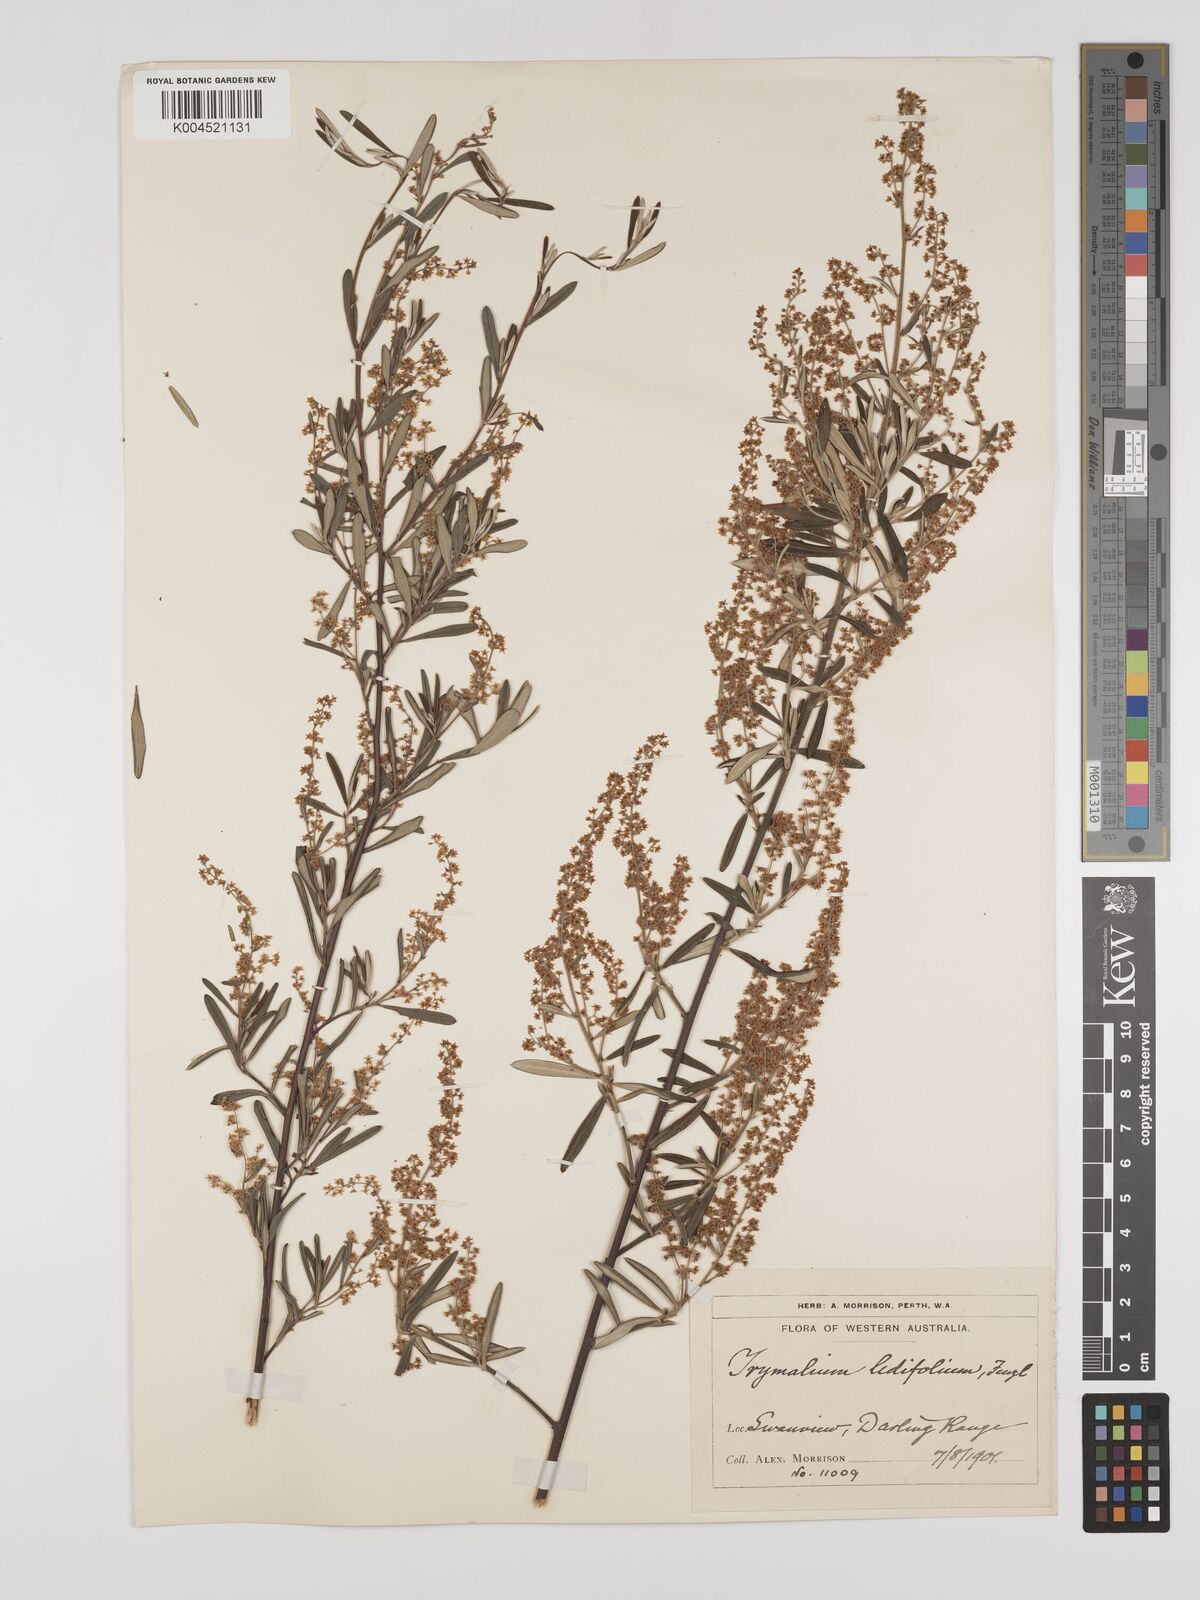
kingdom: Plantae
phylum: Tracheophyta
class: Magnoliopsida
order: Rosales
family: Rhamnaceae
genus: Trymalium
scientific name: Trymalium ledifolium
